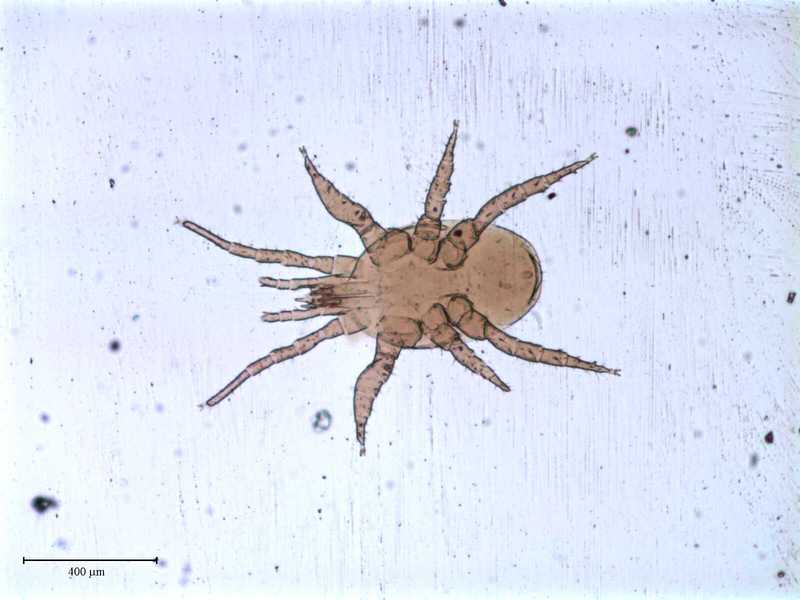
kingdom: Animalia
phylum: Arthropoda
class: Arachnida
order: Mesostigmata
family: Halolaelapidae
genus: Halolaelaps
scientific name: Halolaelaps marinus
